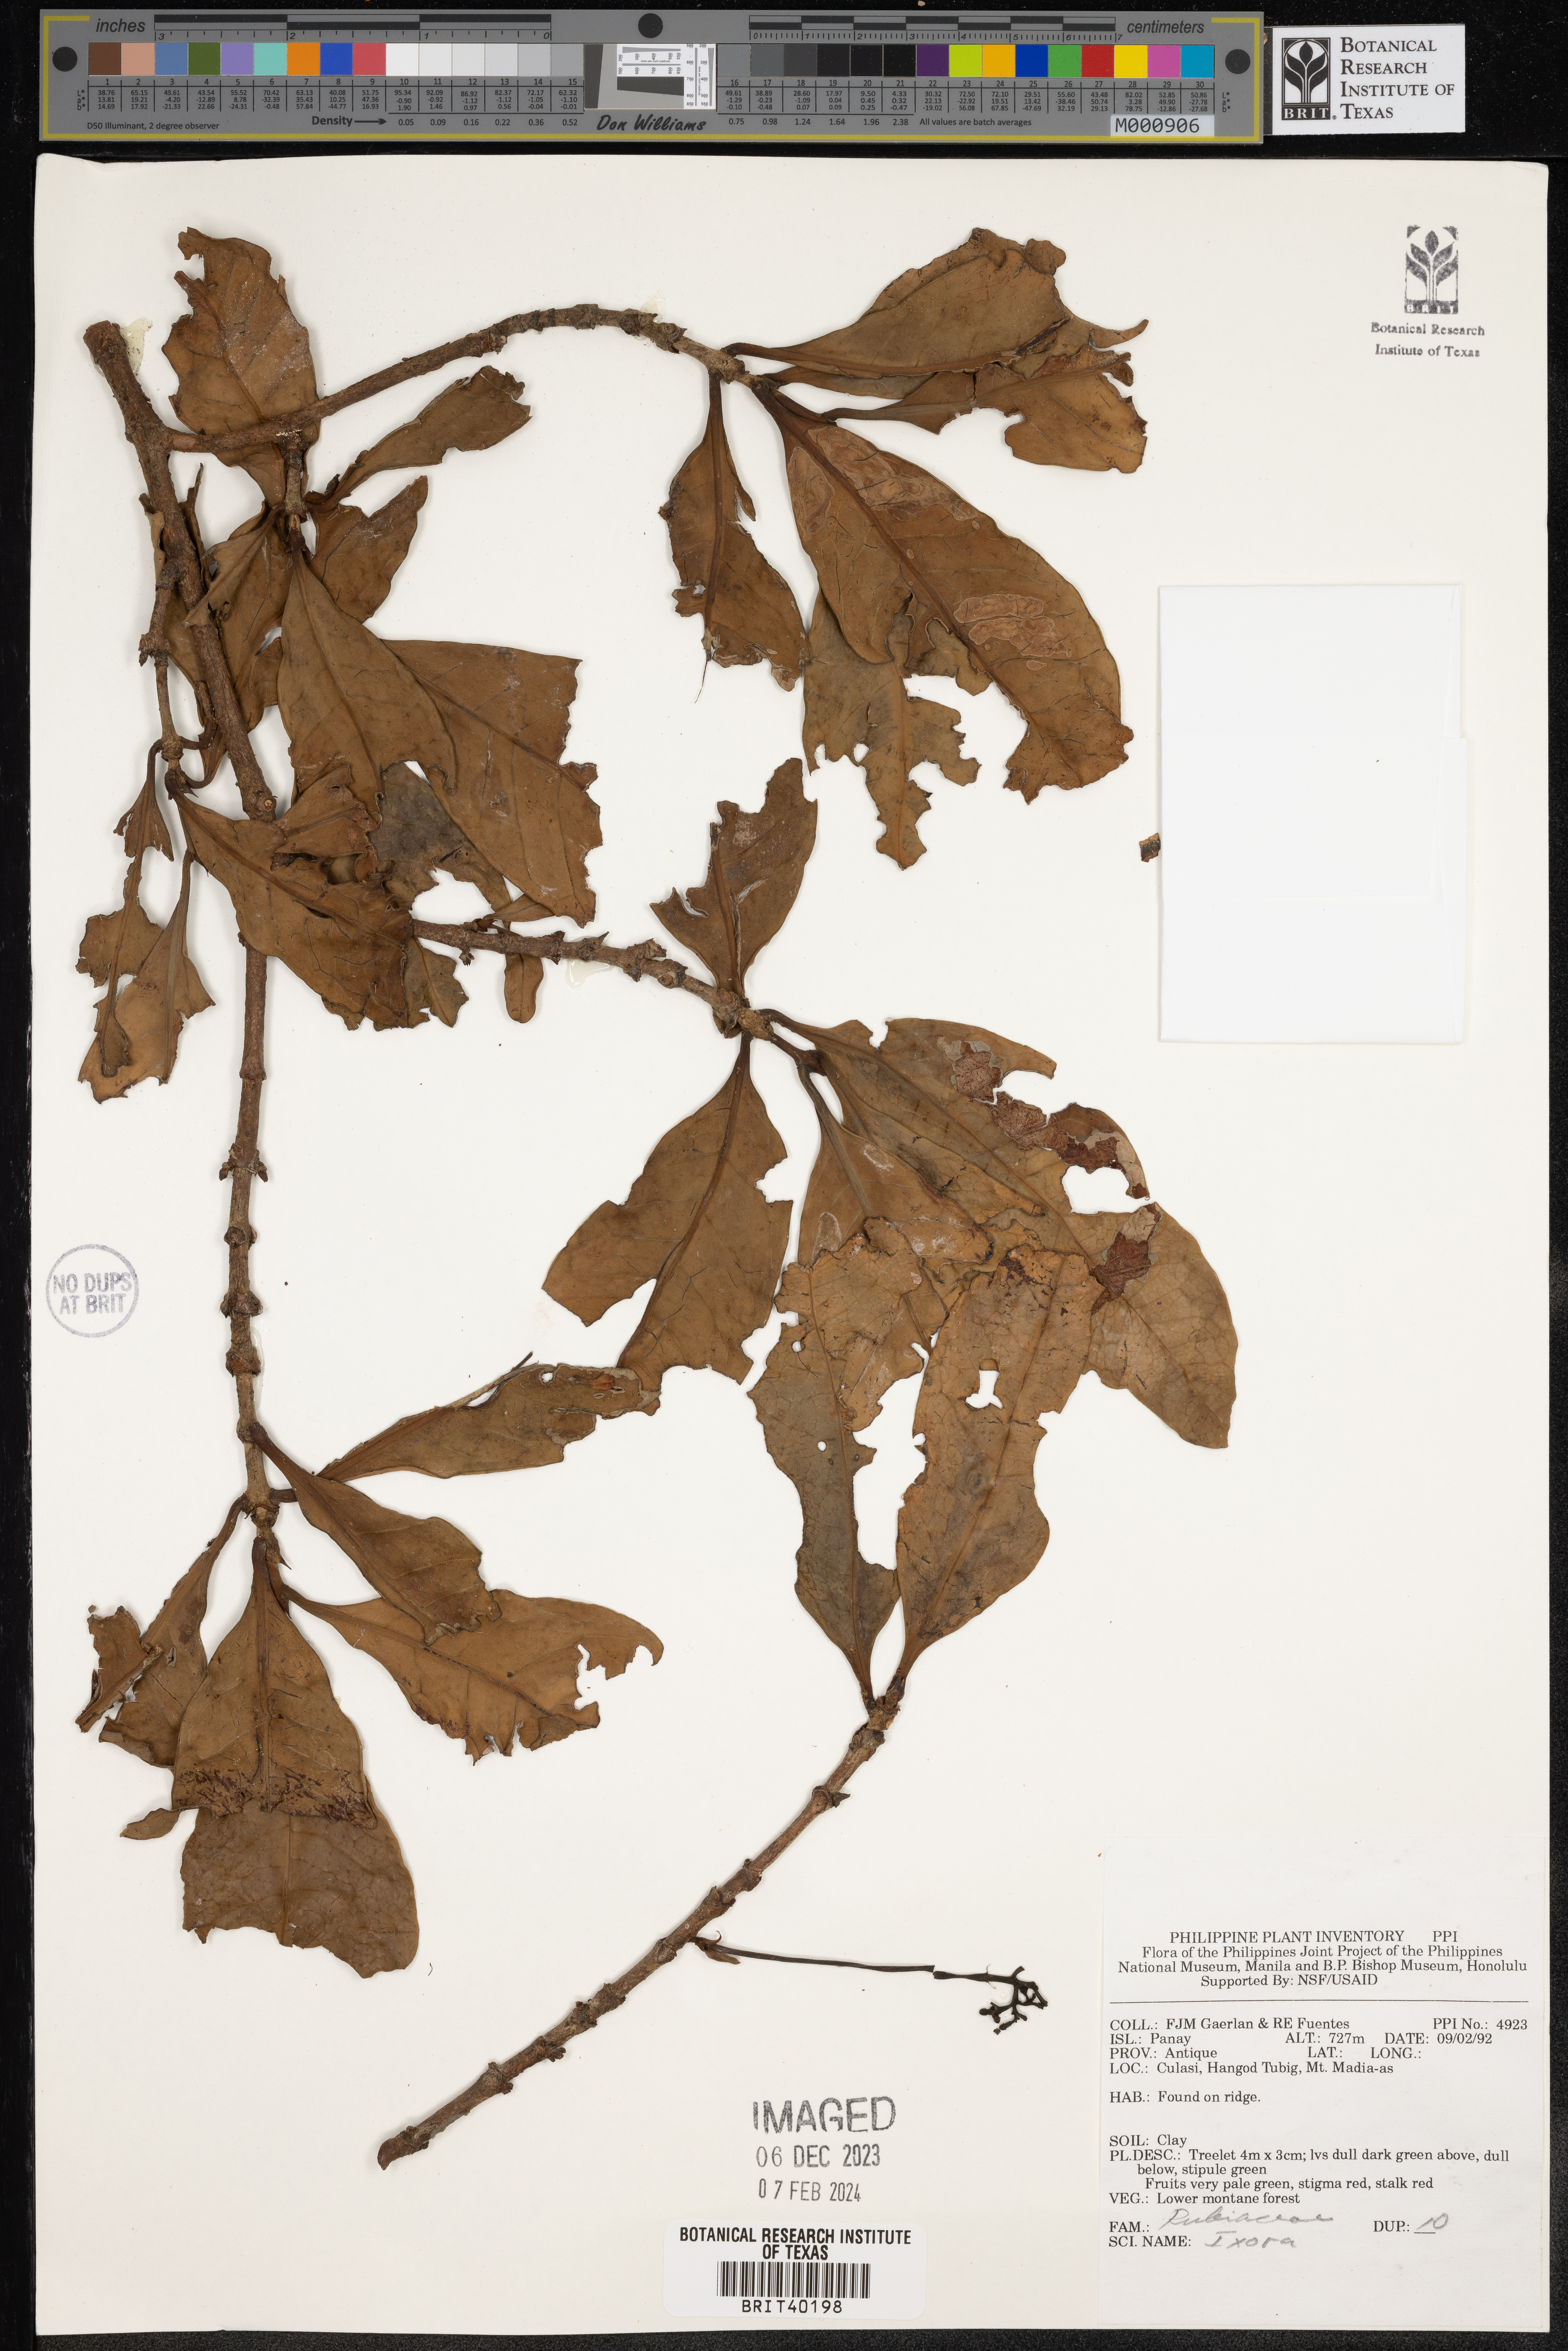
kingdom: Plantae
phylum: Tracheophyta
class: Magnoliopsida
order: Gentianales
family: Rubiaceae
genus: Ixora
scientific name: Ixora
